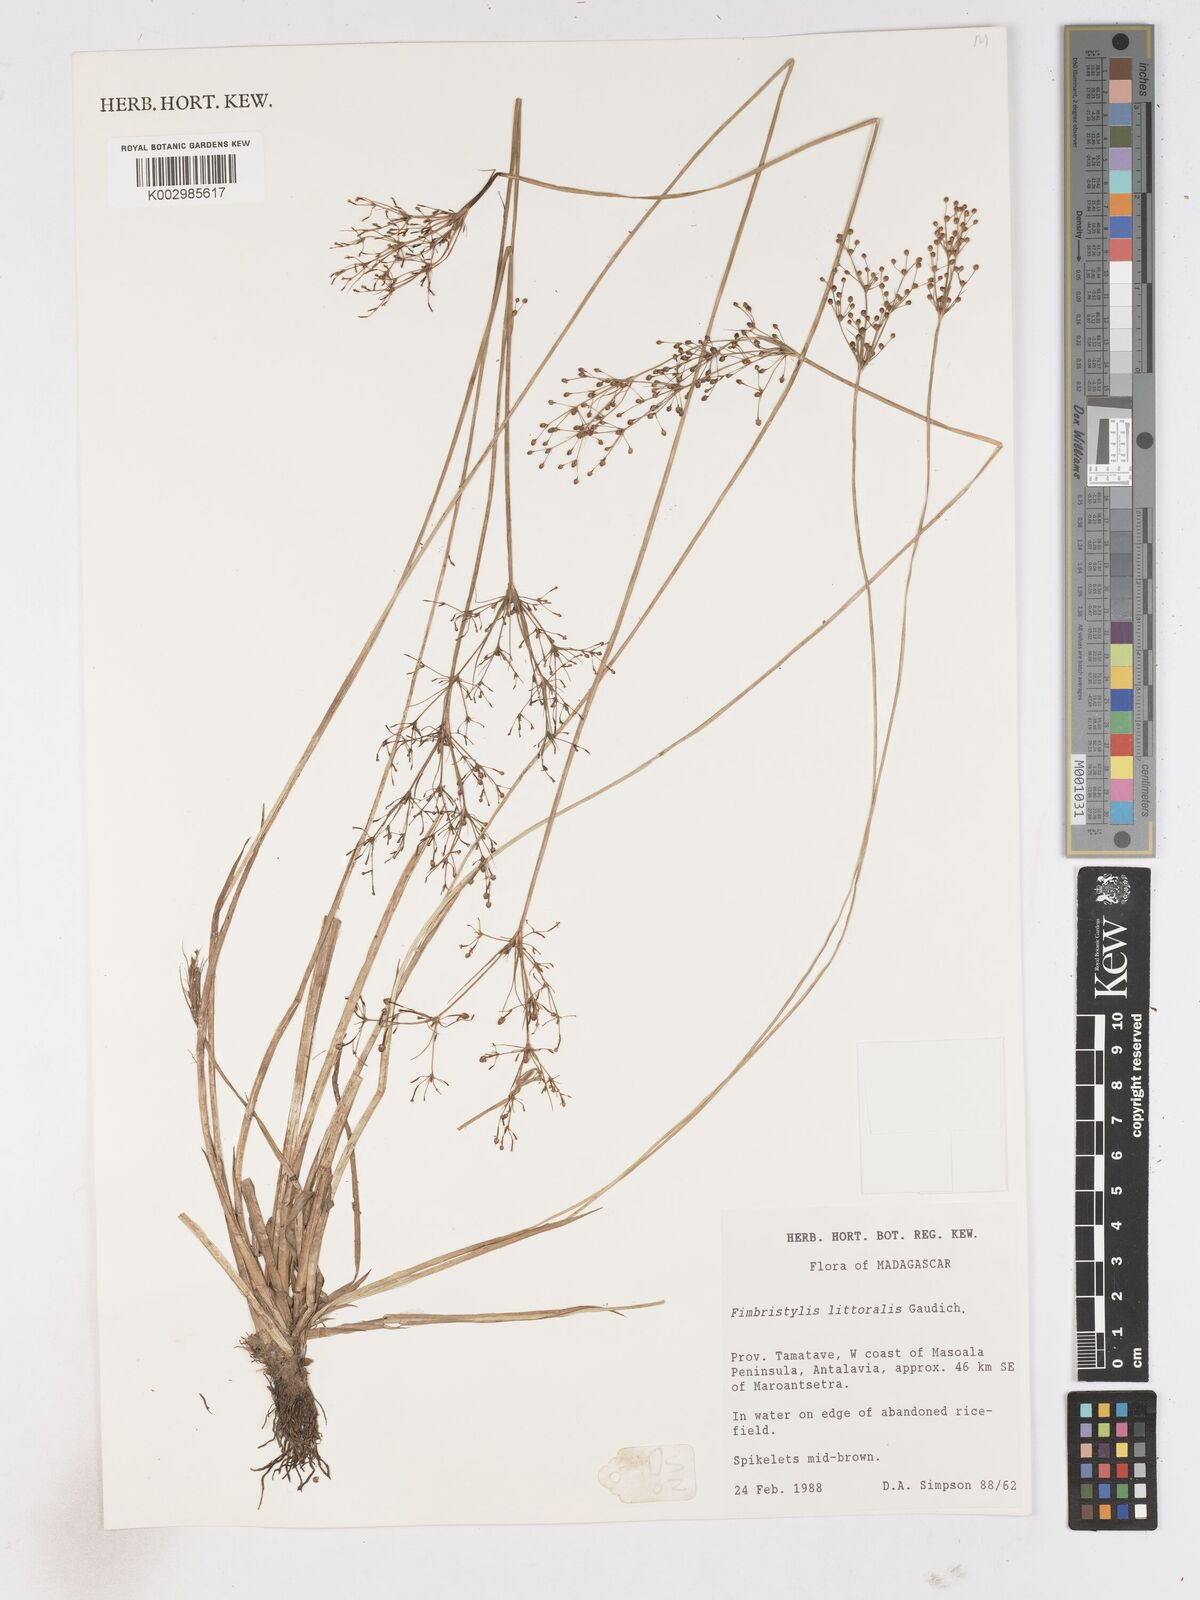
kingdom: Plantae
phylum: Tracheophyta
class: Liliopsida
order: Poales
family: Cyperaceae
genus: Fimbristylis
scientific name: Fimbristylis littoralis
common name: Fimbry
